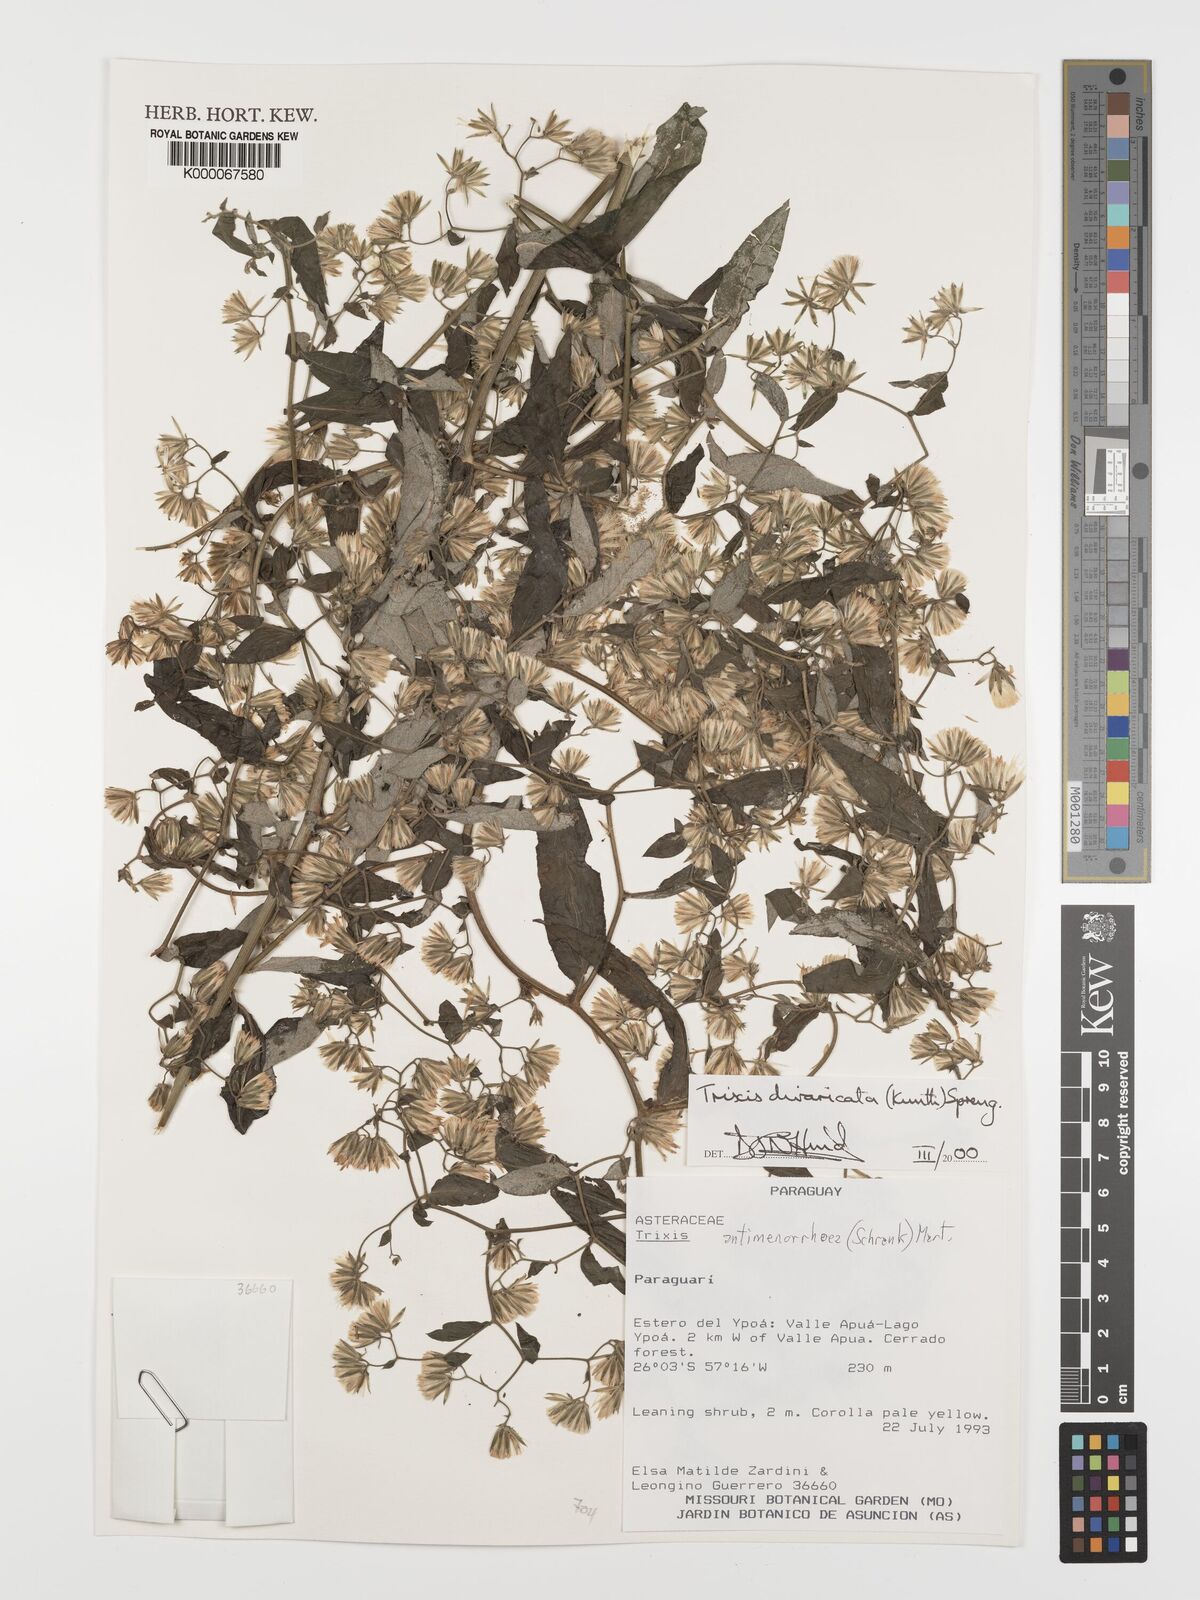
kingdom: Plantae
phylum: Tracheophyta
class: Magnoliopsida
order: Asterales
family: Asteraceae
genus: Trixis
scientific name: Trixis divaricata
